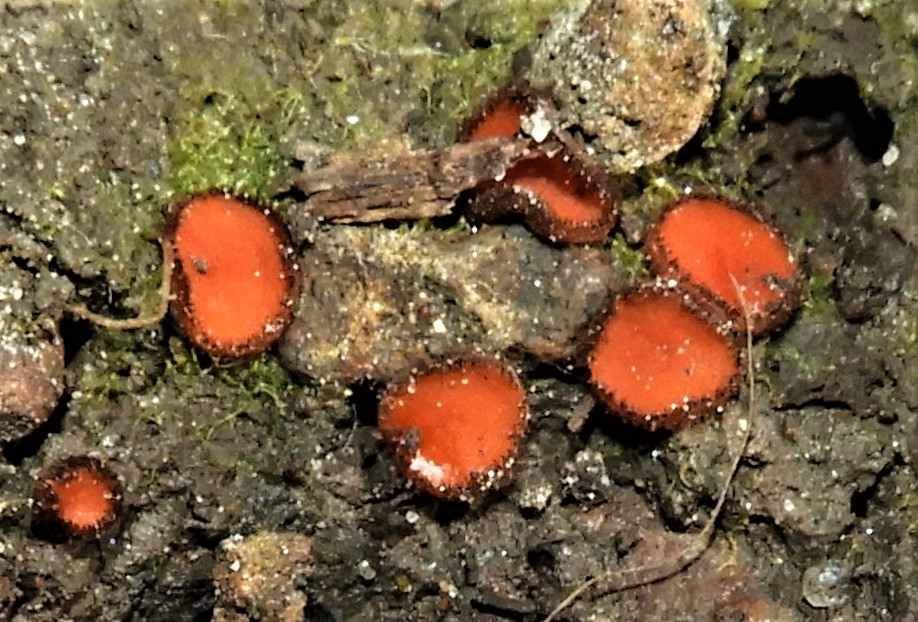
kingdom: Fungi
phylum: Ascomycota
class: Pezizomycetes
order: Pezizales
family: Pyronemataceae
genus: Scutellinia
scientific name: Scutellinia
